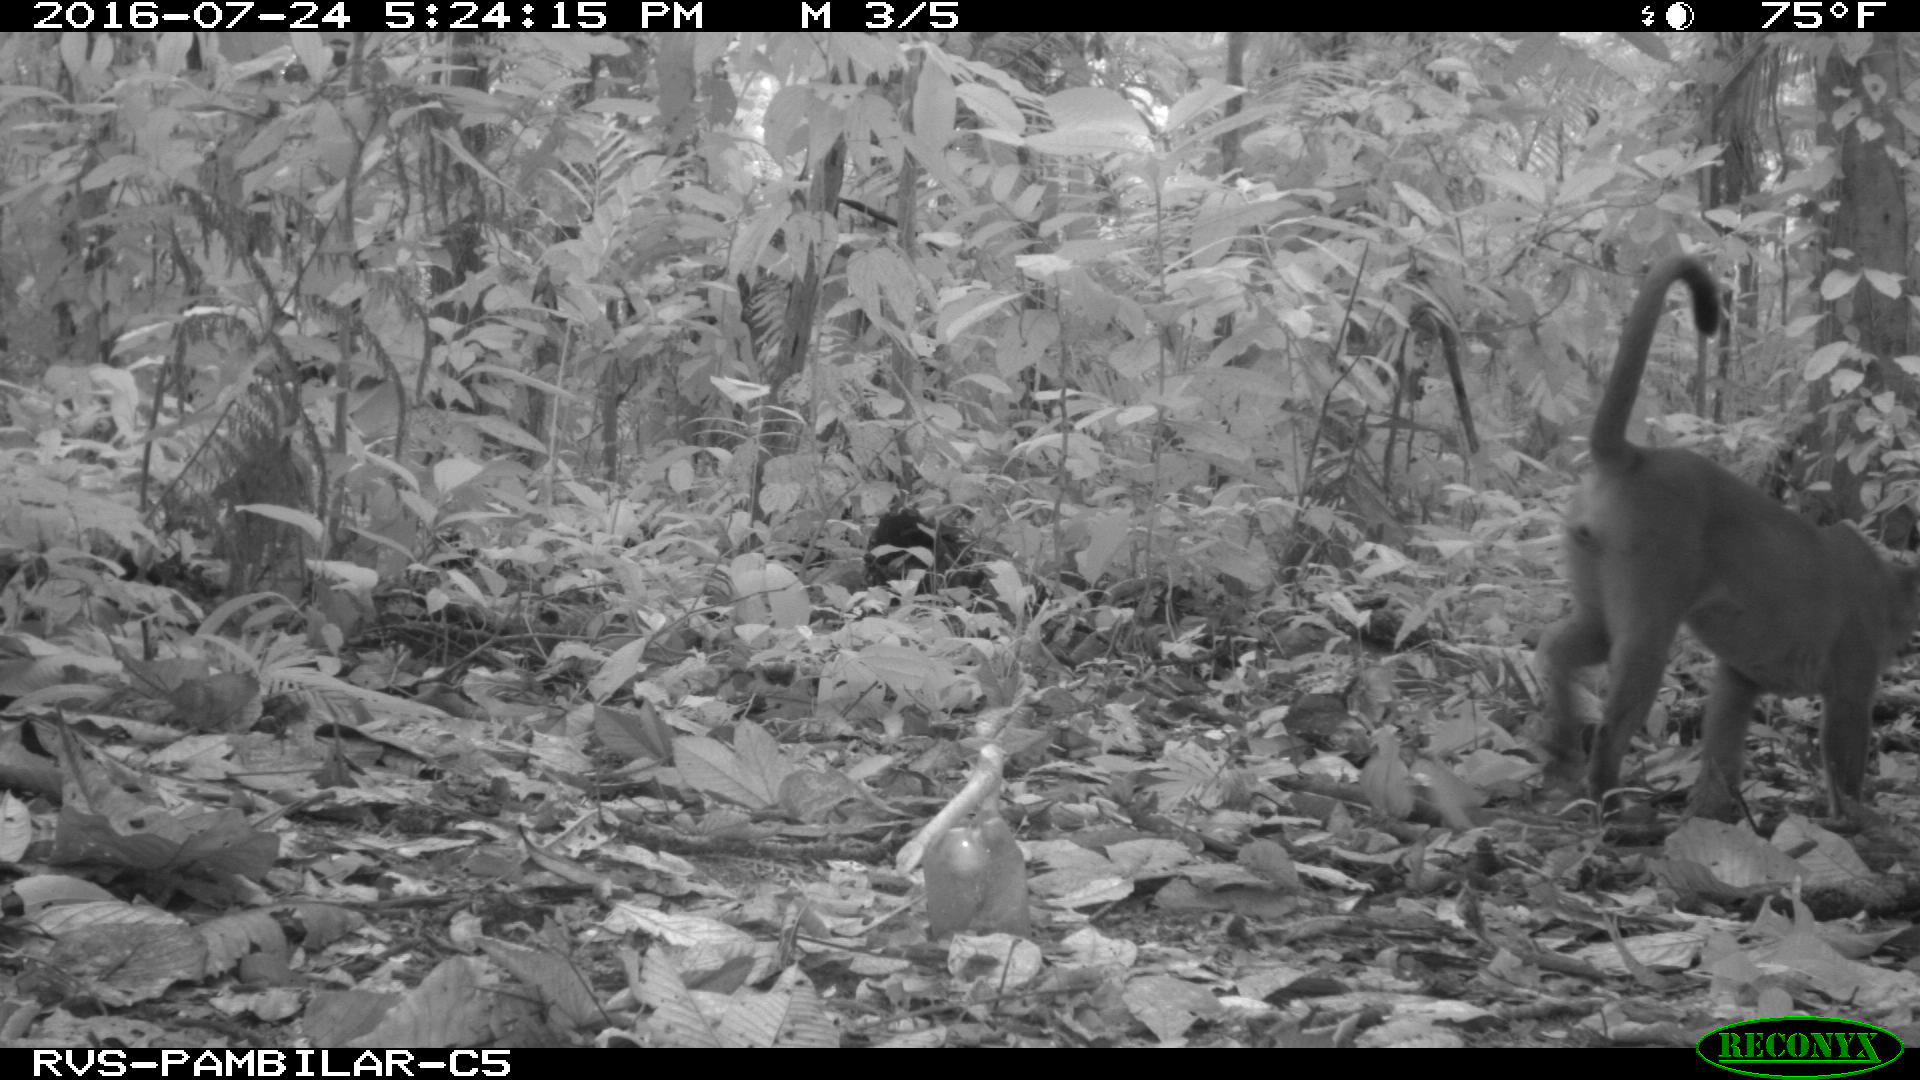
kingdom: Animalia
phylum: Chordata
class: Mammalia
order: Carnivora
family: Felidae
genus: Puma
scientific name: Puma concolor
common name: Puma
